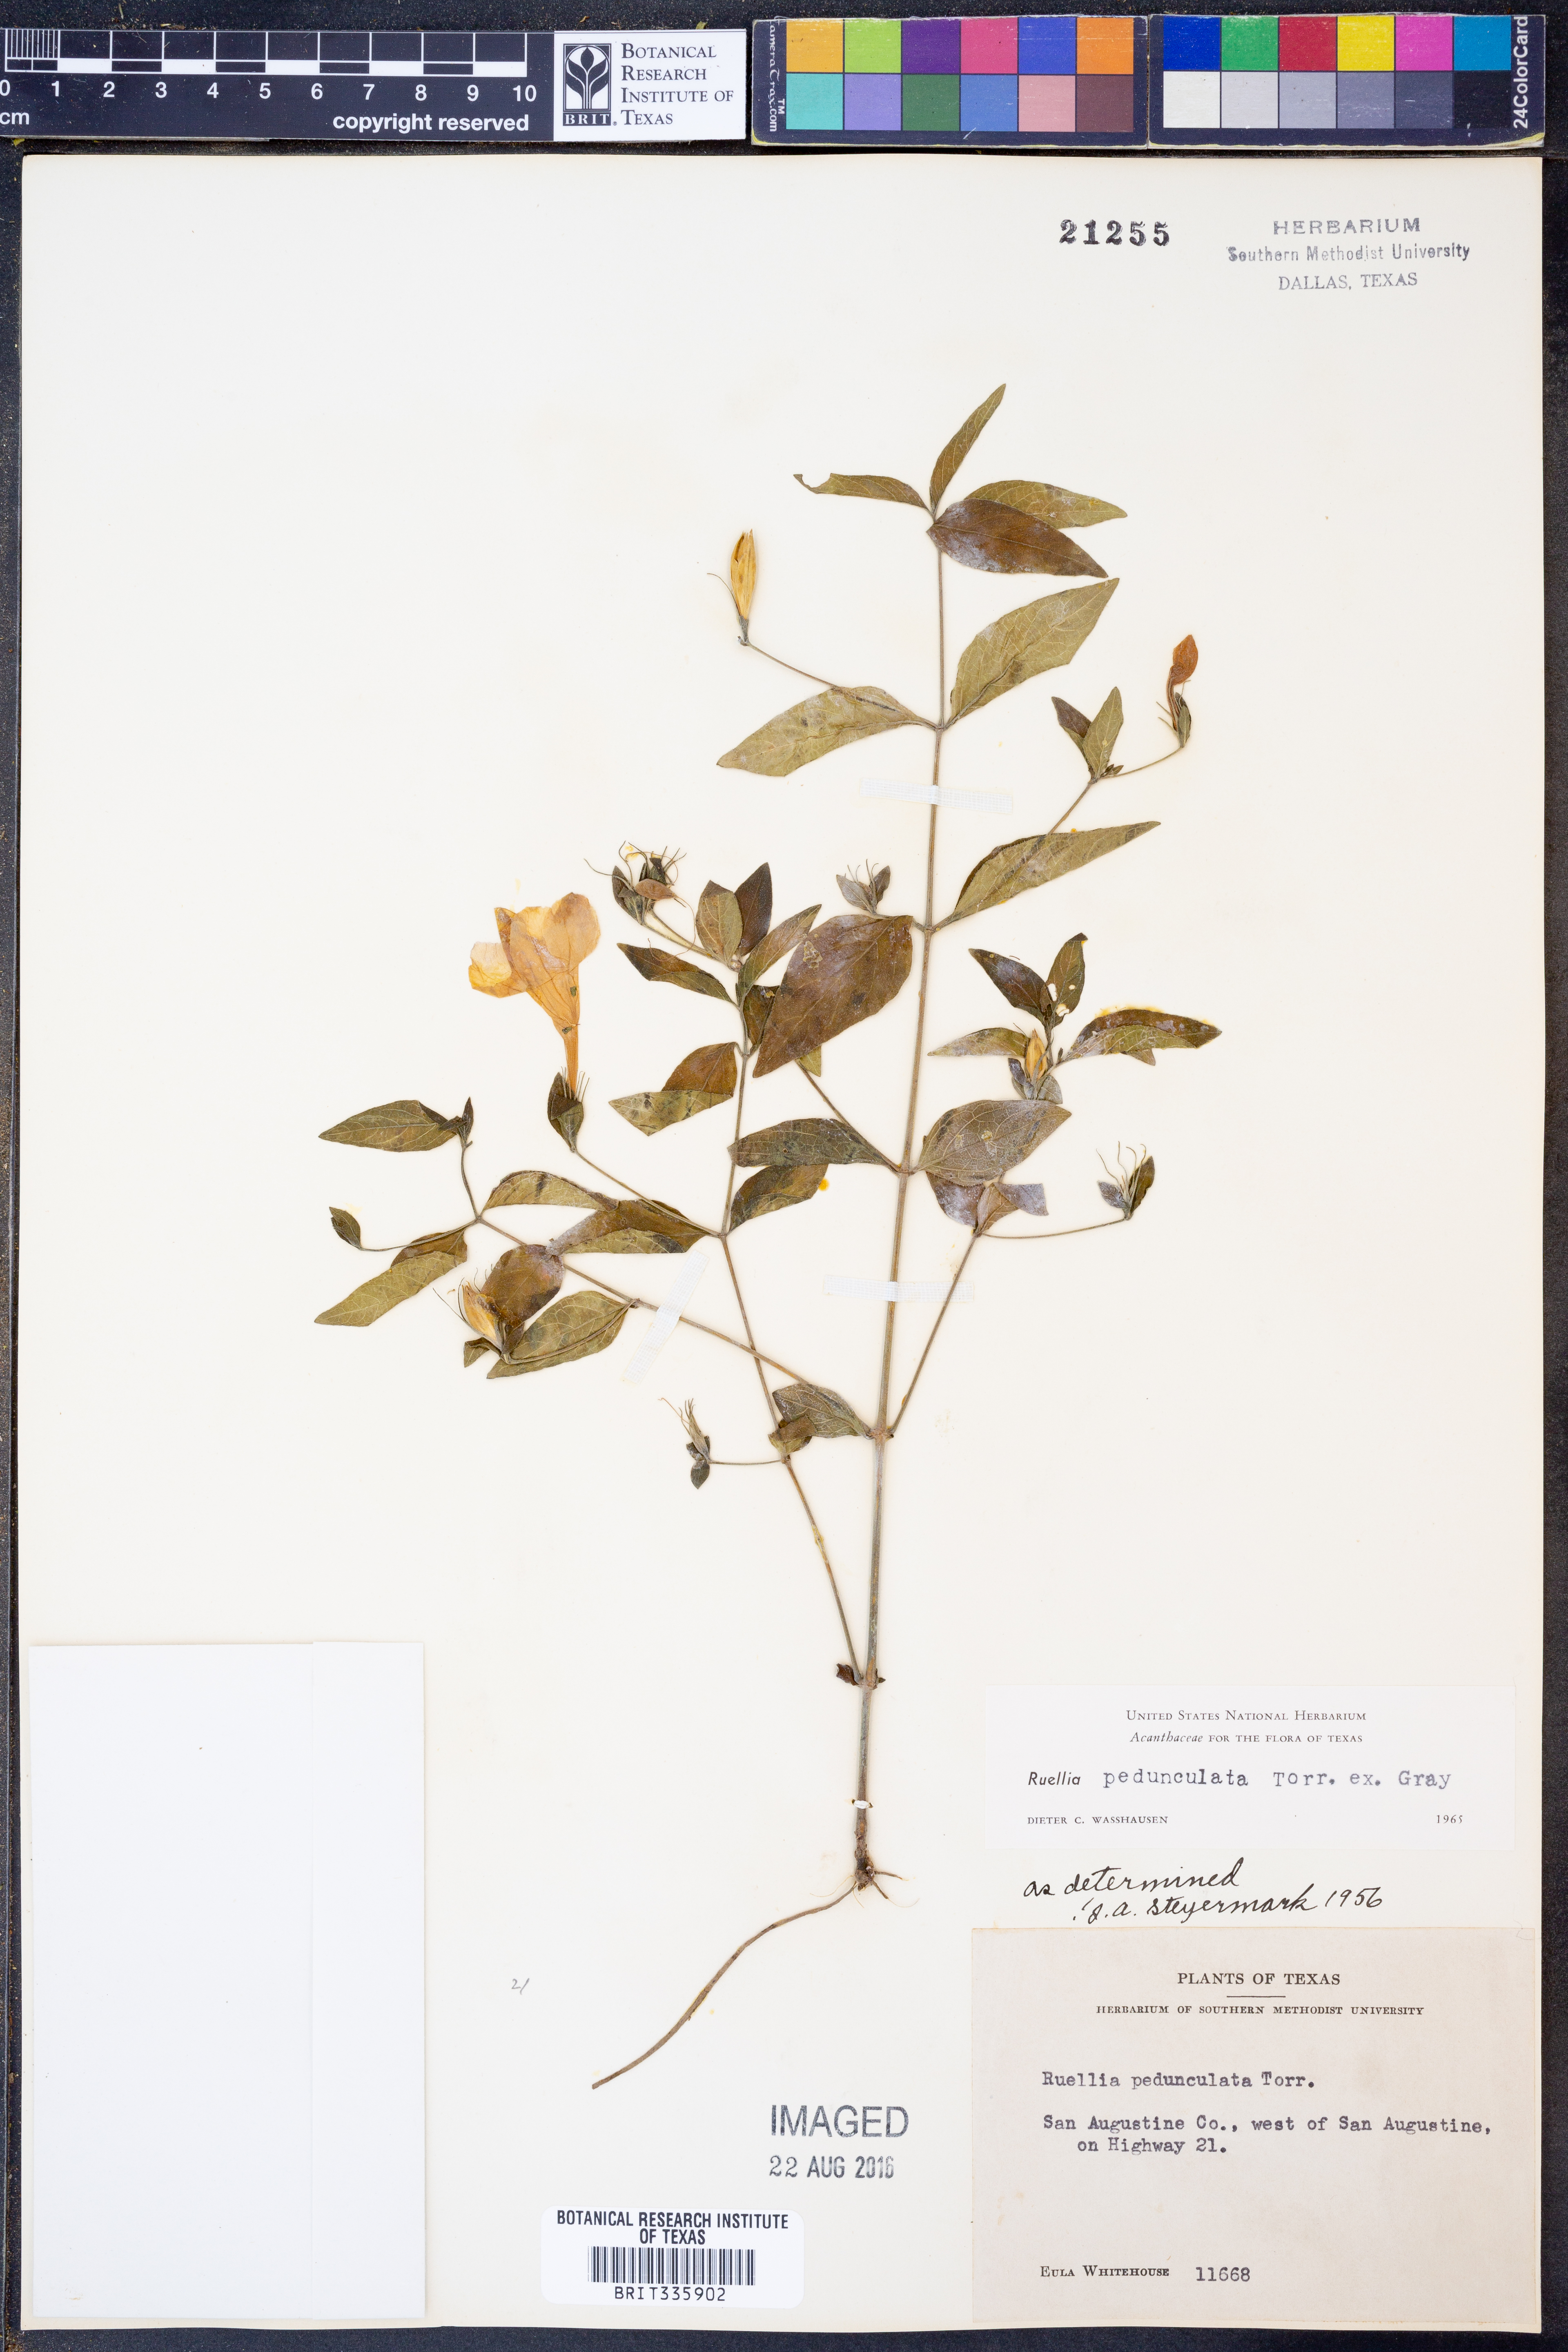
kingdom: Plantae
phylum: Tracheophyta
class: Magnoliopsida
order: Lamiales
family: Acanthaceae
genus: Ruellia
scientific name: Ruellia pedunculata
